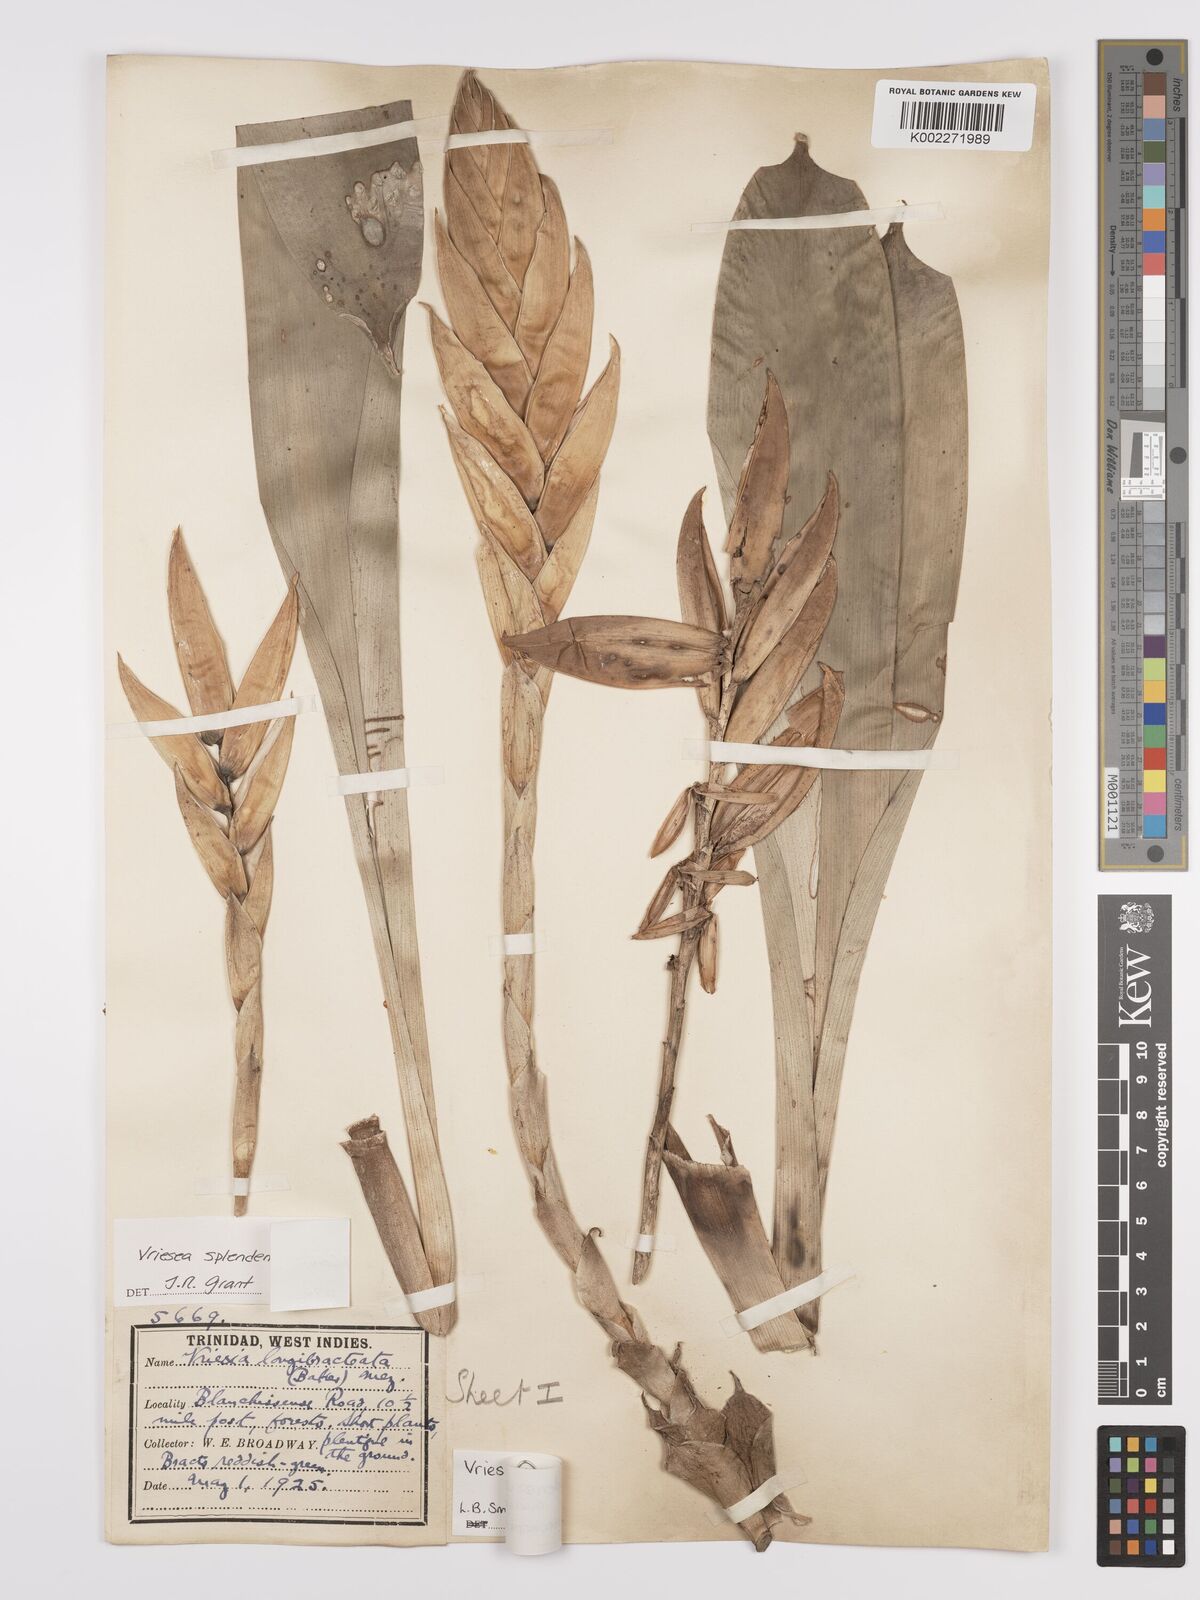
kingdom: Plantae
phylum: Tracheophyta
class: Liliopsida
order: Poales
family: Bromeliaceae
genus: Lutheria
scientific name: Lutheria splendens
